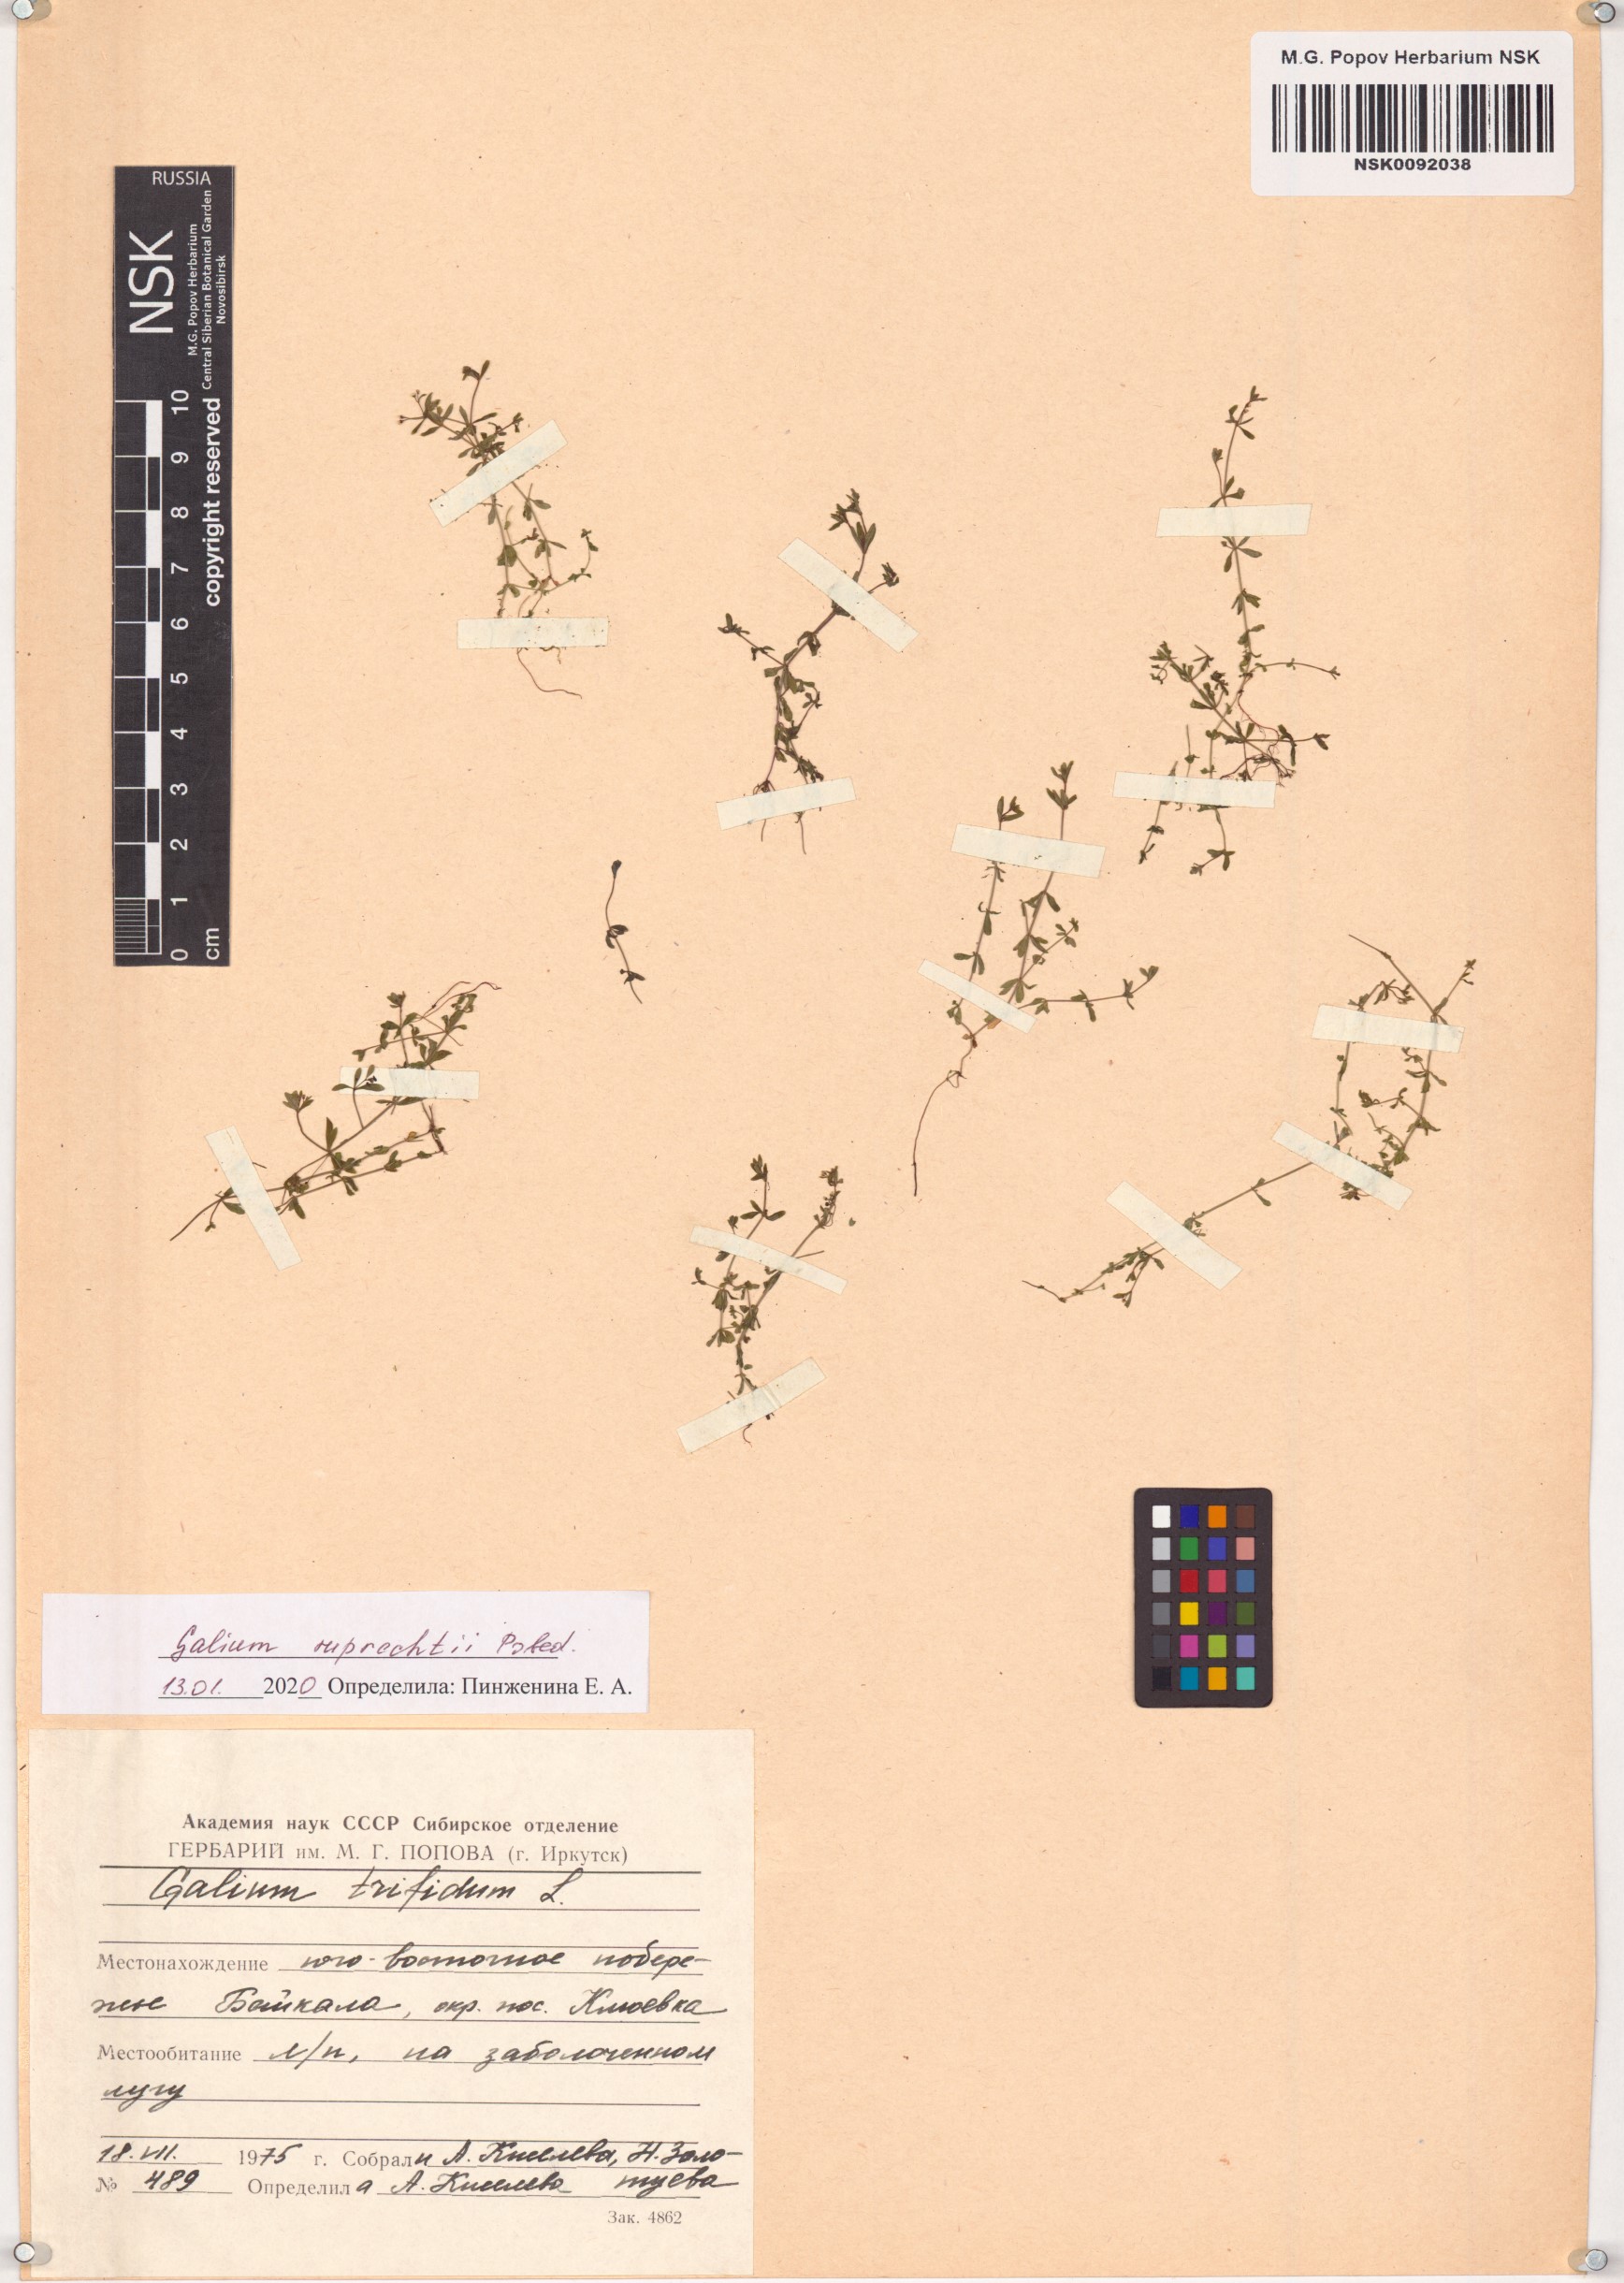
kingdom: Plantae
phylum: Tracheophyta
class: Magnoliopsida
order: Gentianales
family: Rubiaceae
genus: Galium
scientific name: Galium trifidum
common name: Small bedstraw
